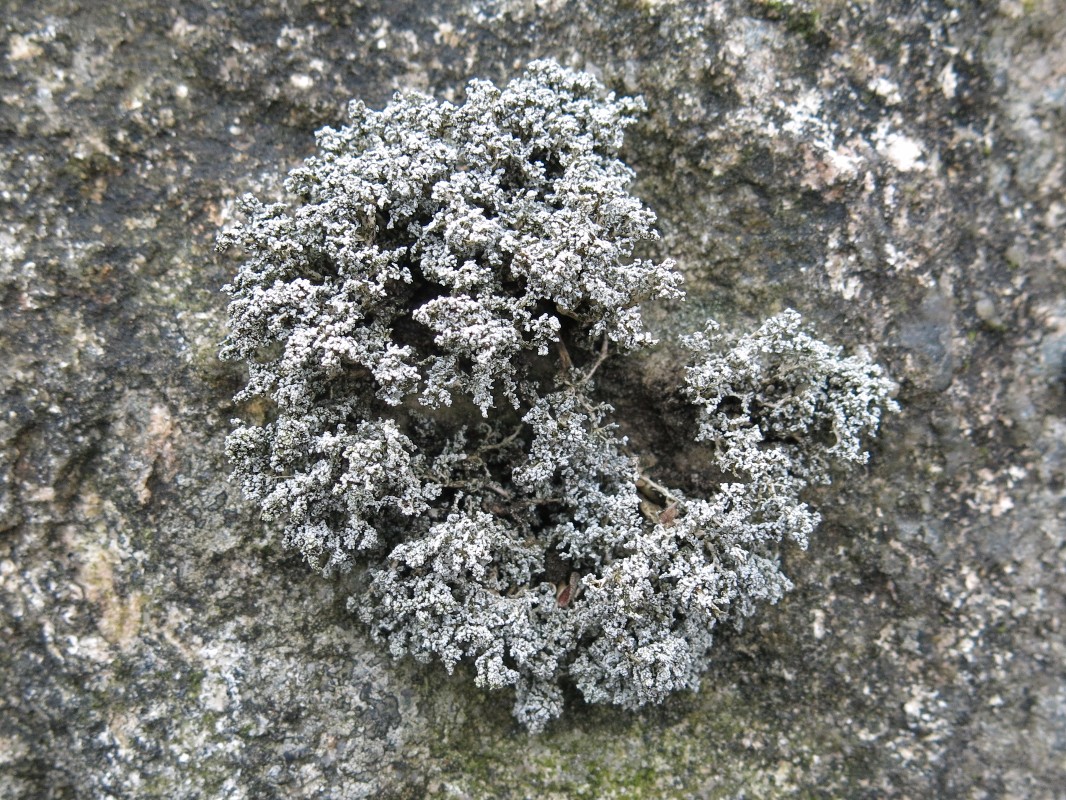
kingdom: Fungi
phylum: Ascomycota
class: Lecanoromycetes
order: Lecanorales
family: Stereocaulaceae
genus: Stereocaulon
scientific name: Stereocaulon vesuvianum
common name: skjold-korallav
